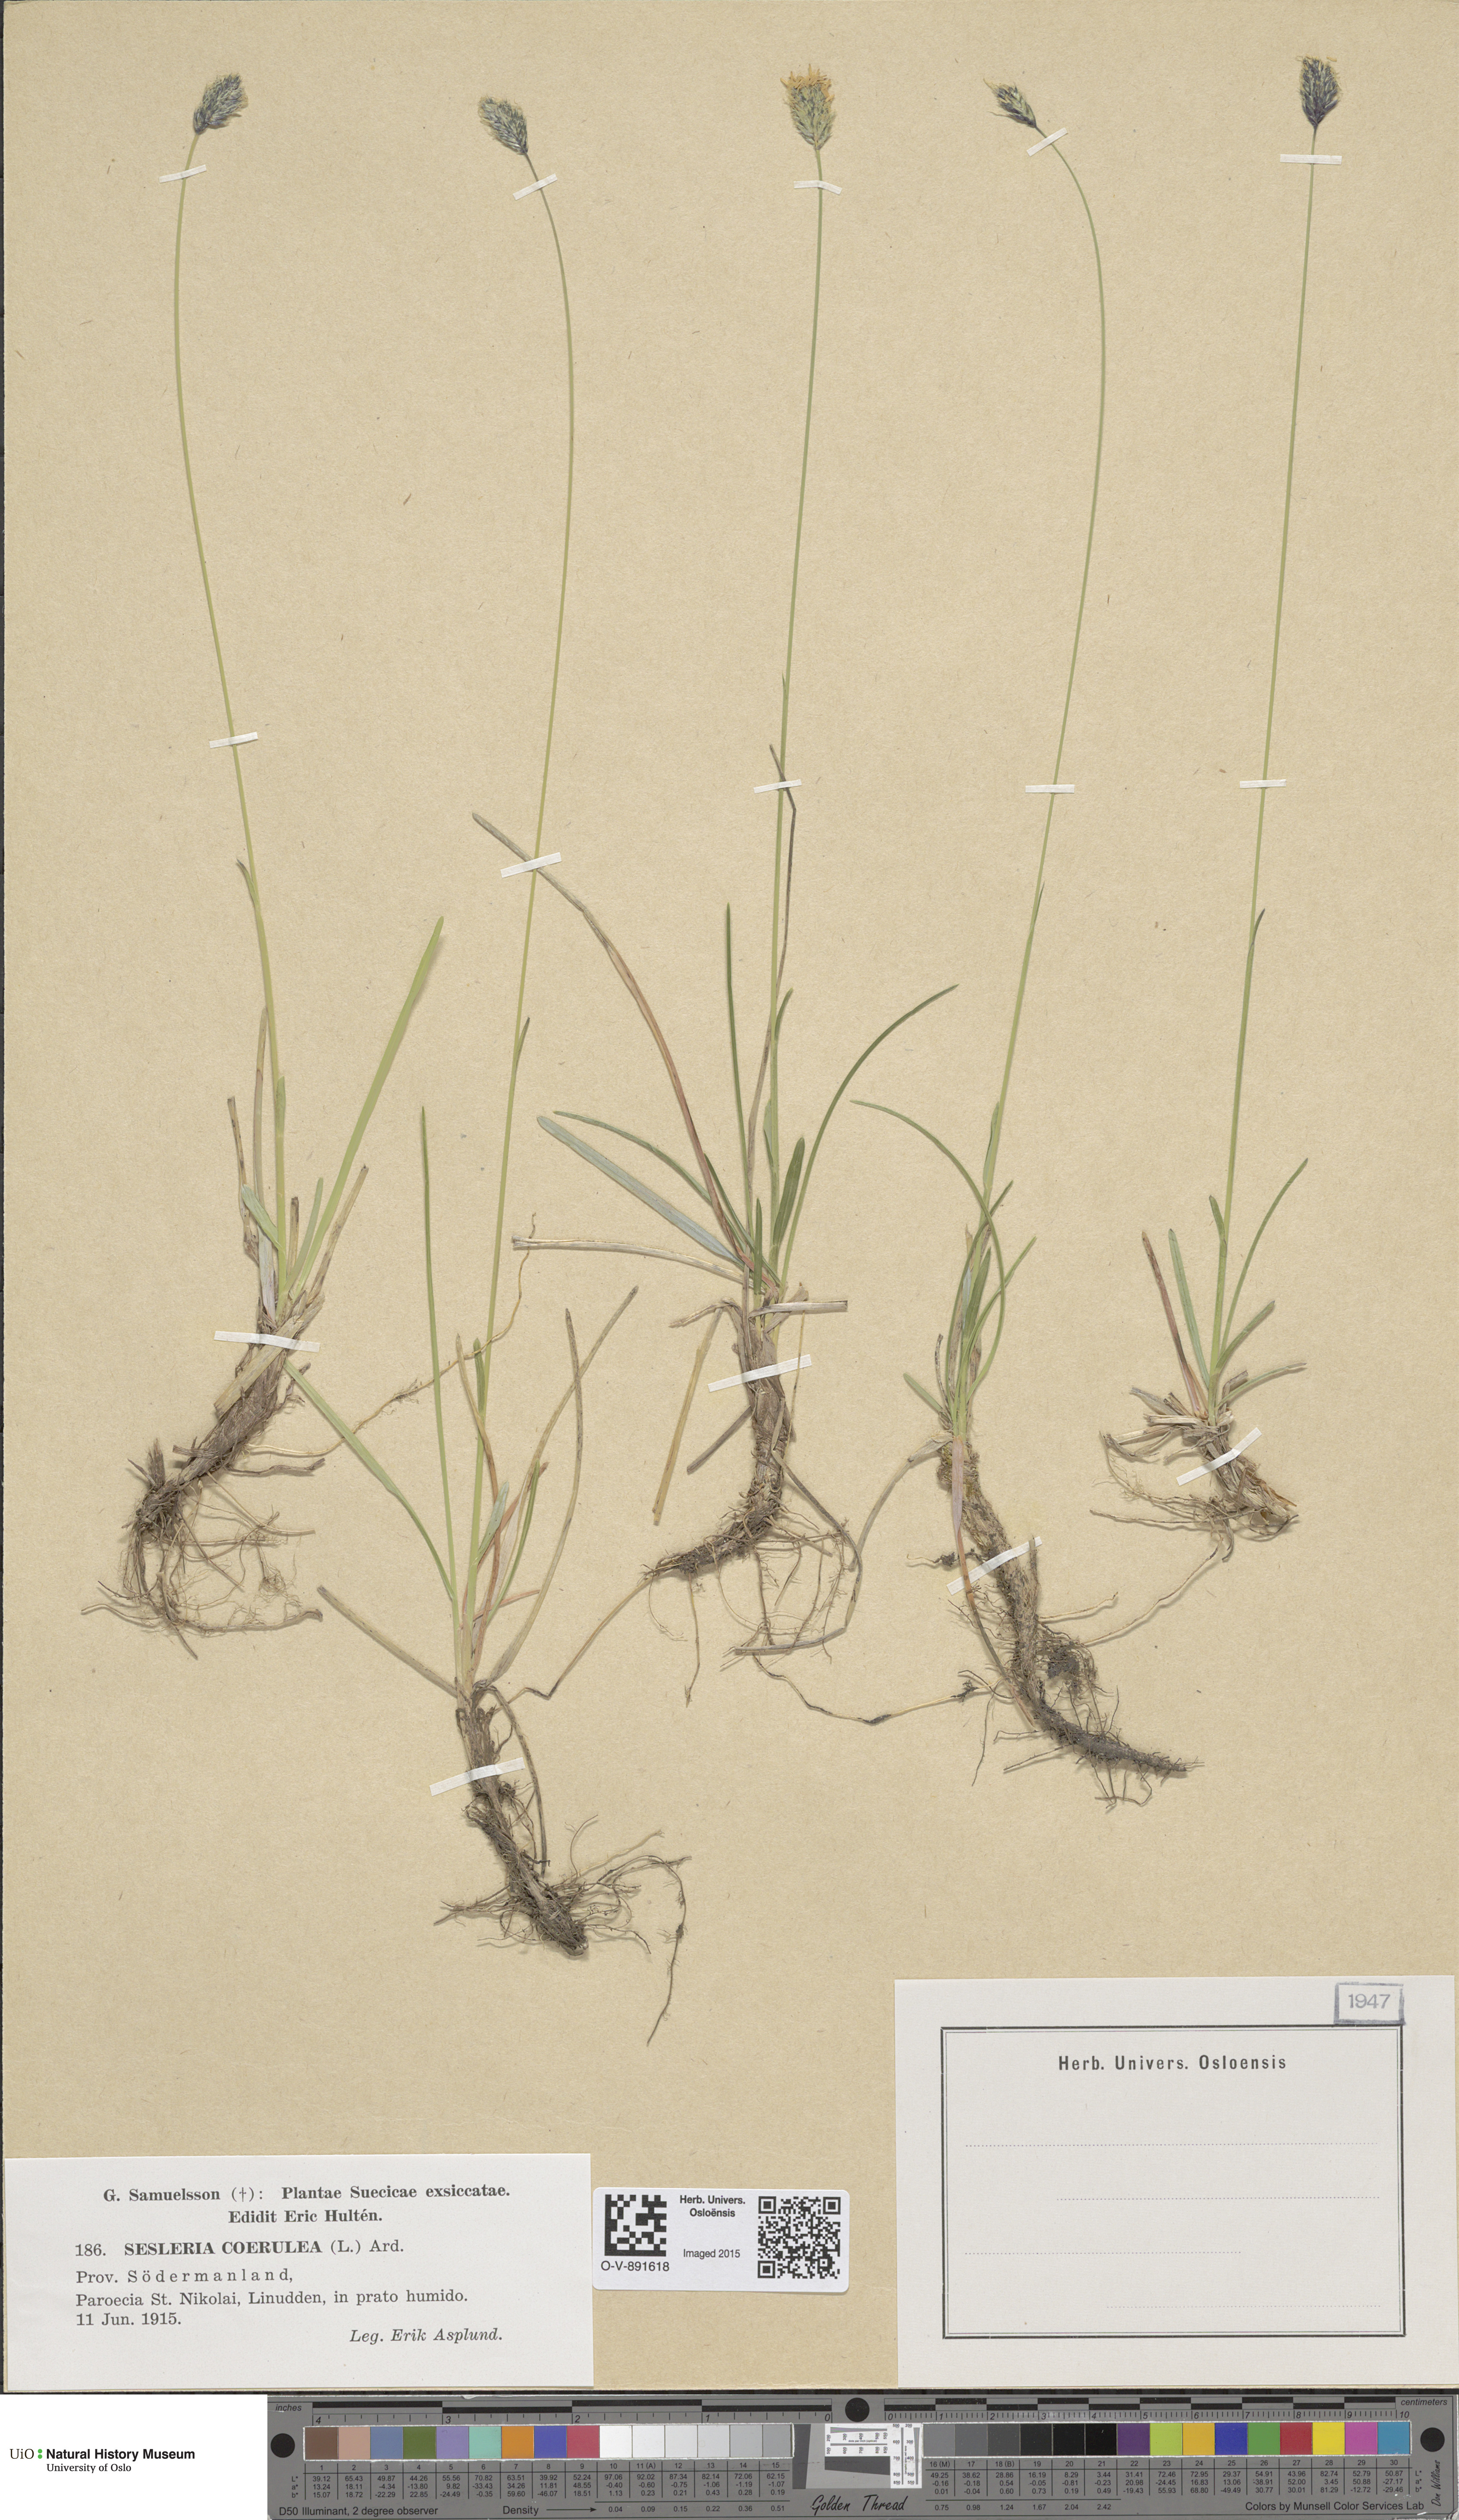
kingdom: Plantae
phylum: Tracheophyta
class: Liliopsida
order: Poales
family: Poaceae
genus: Sesleria
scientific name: Sesleria uliginosa
